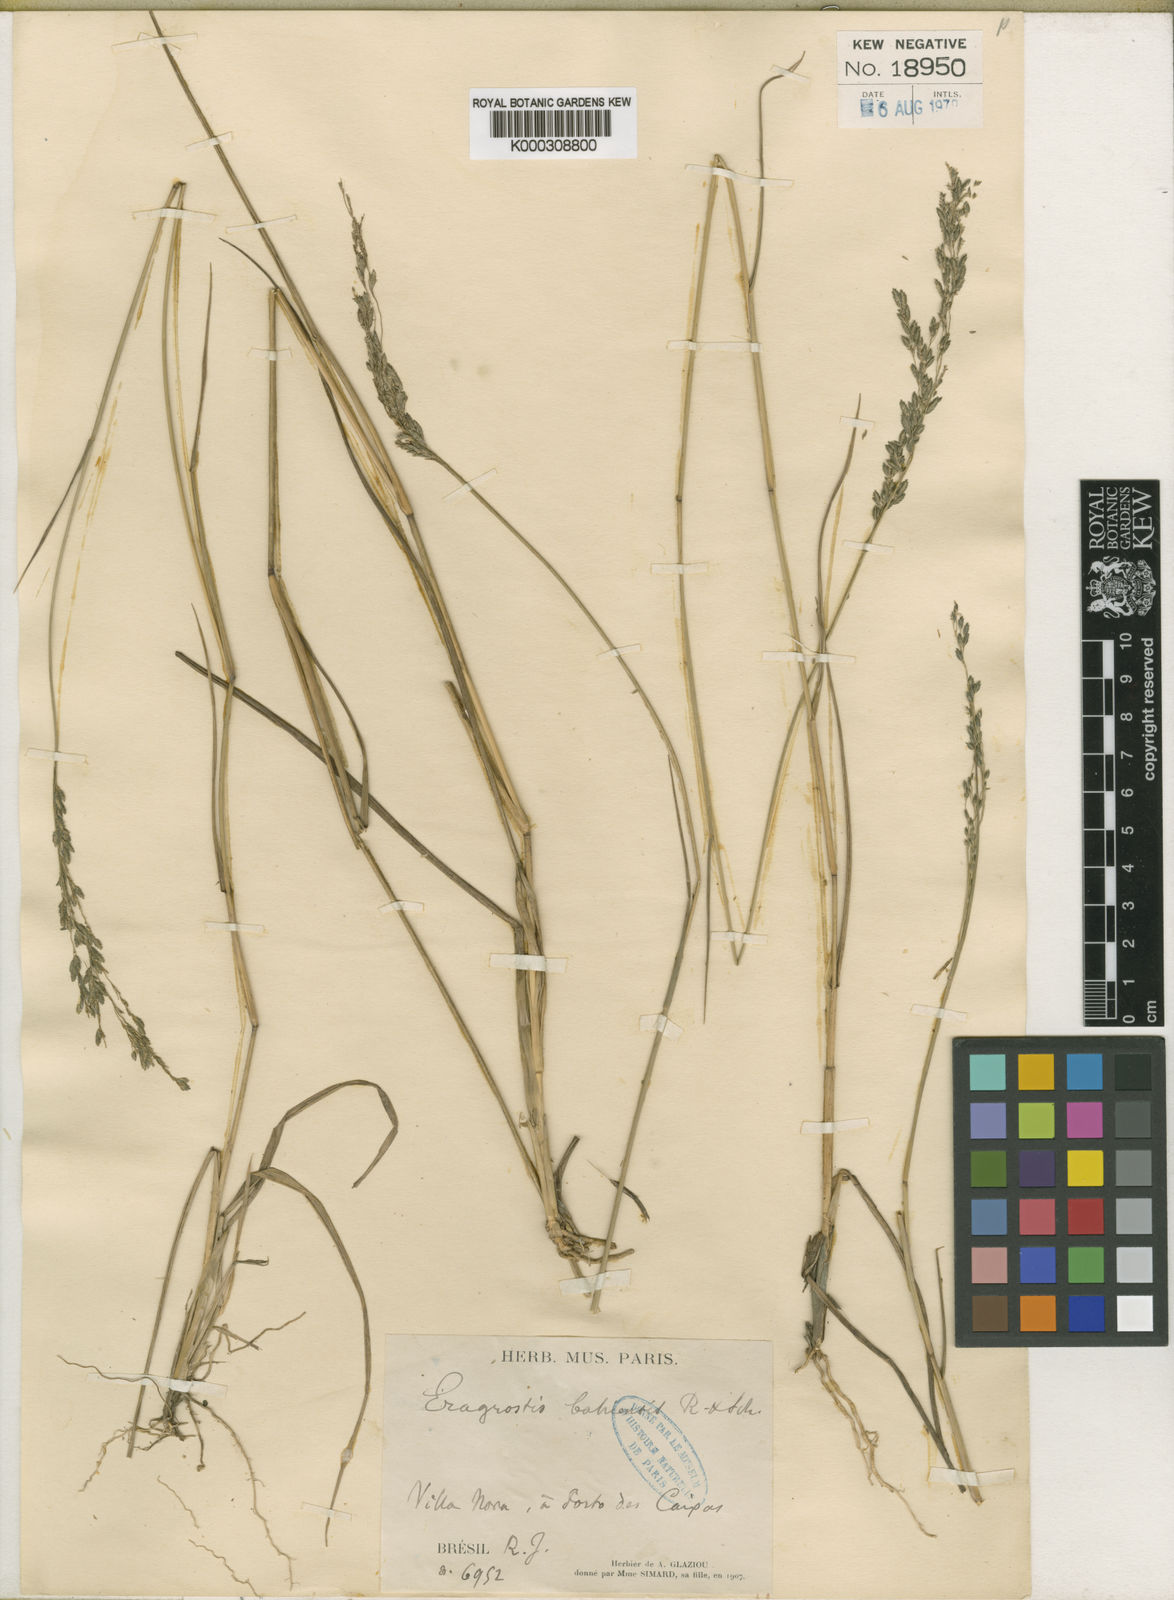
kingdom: Plantae
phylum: Tracheophyta
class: Liliopsida
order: Poales
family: Poaceae
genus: Eragrostis
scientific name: Eragrostis bahiensis
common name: Bahia lovegrass
